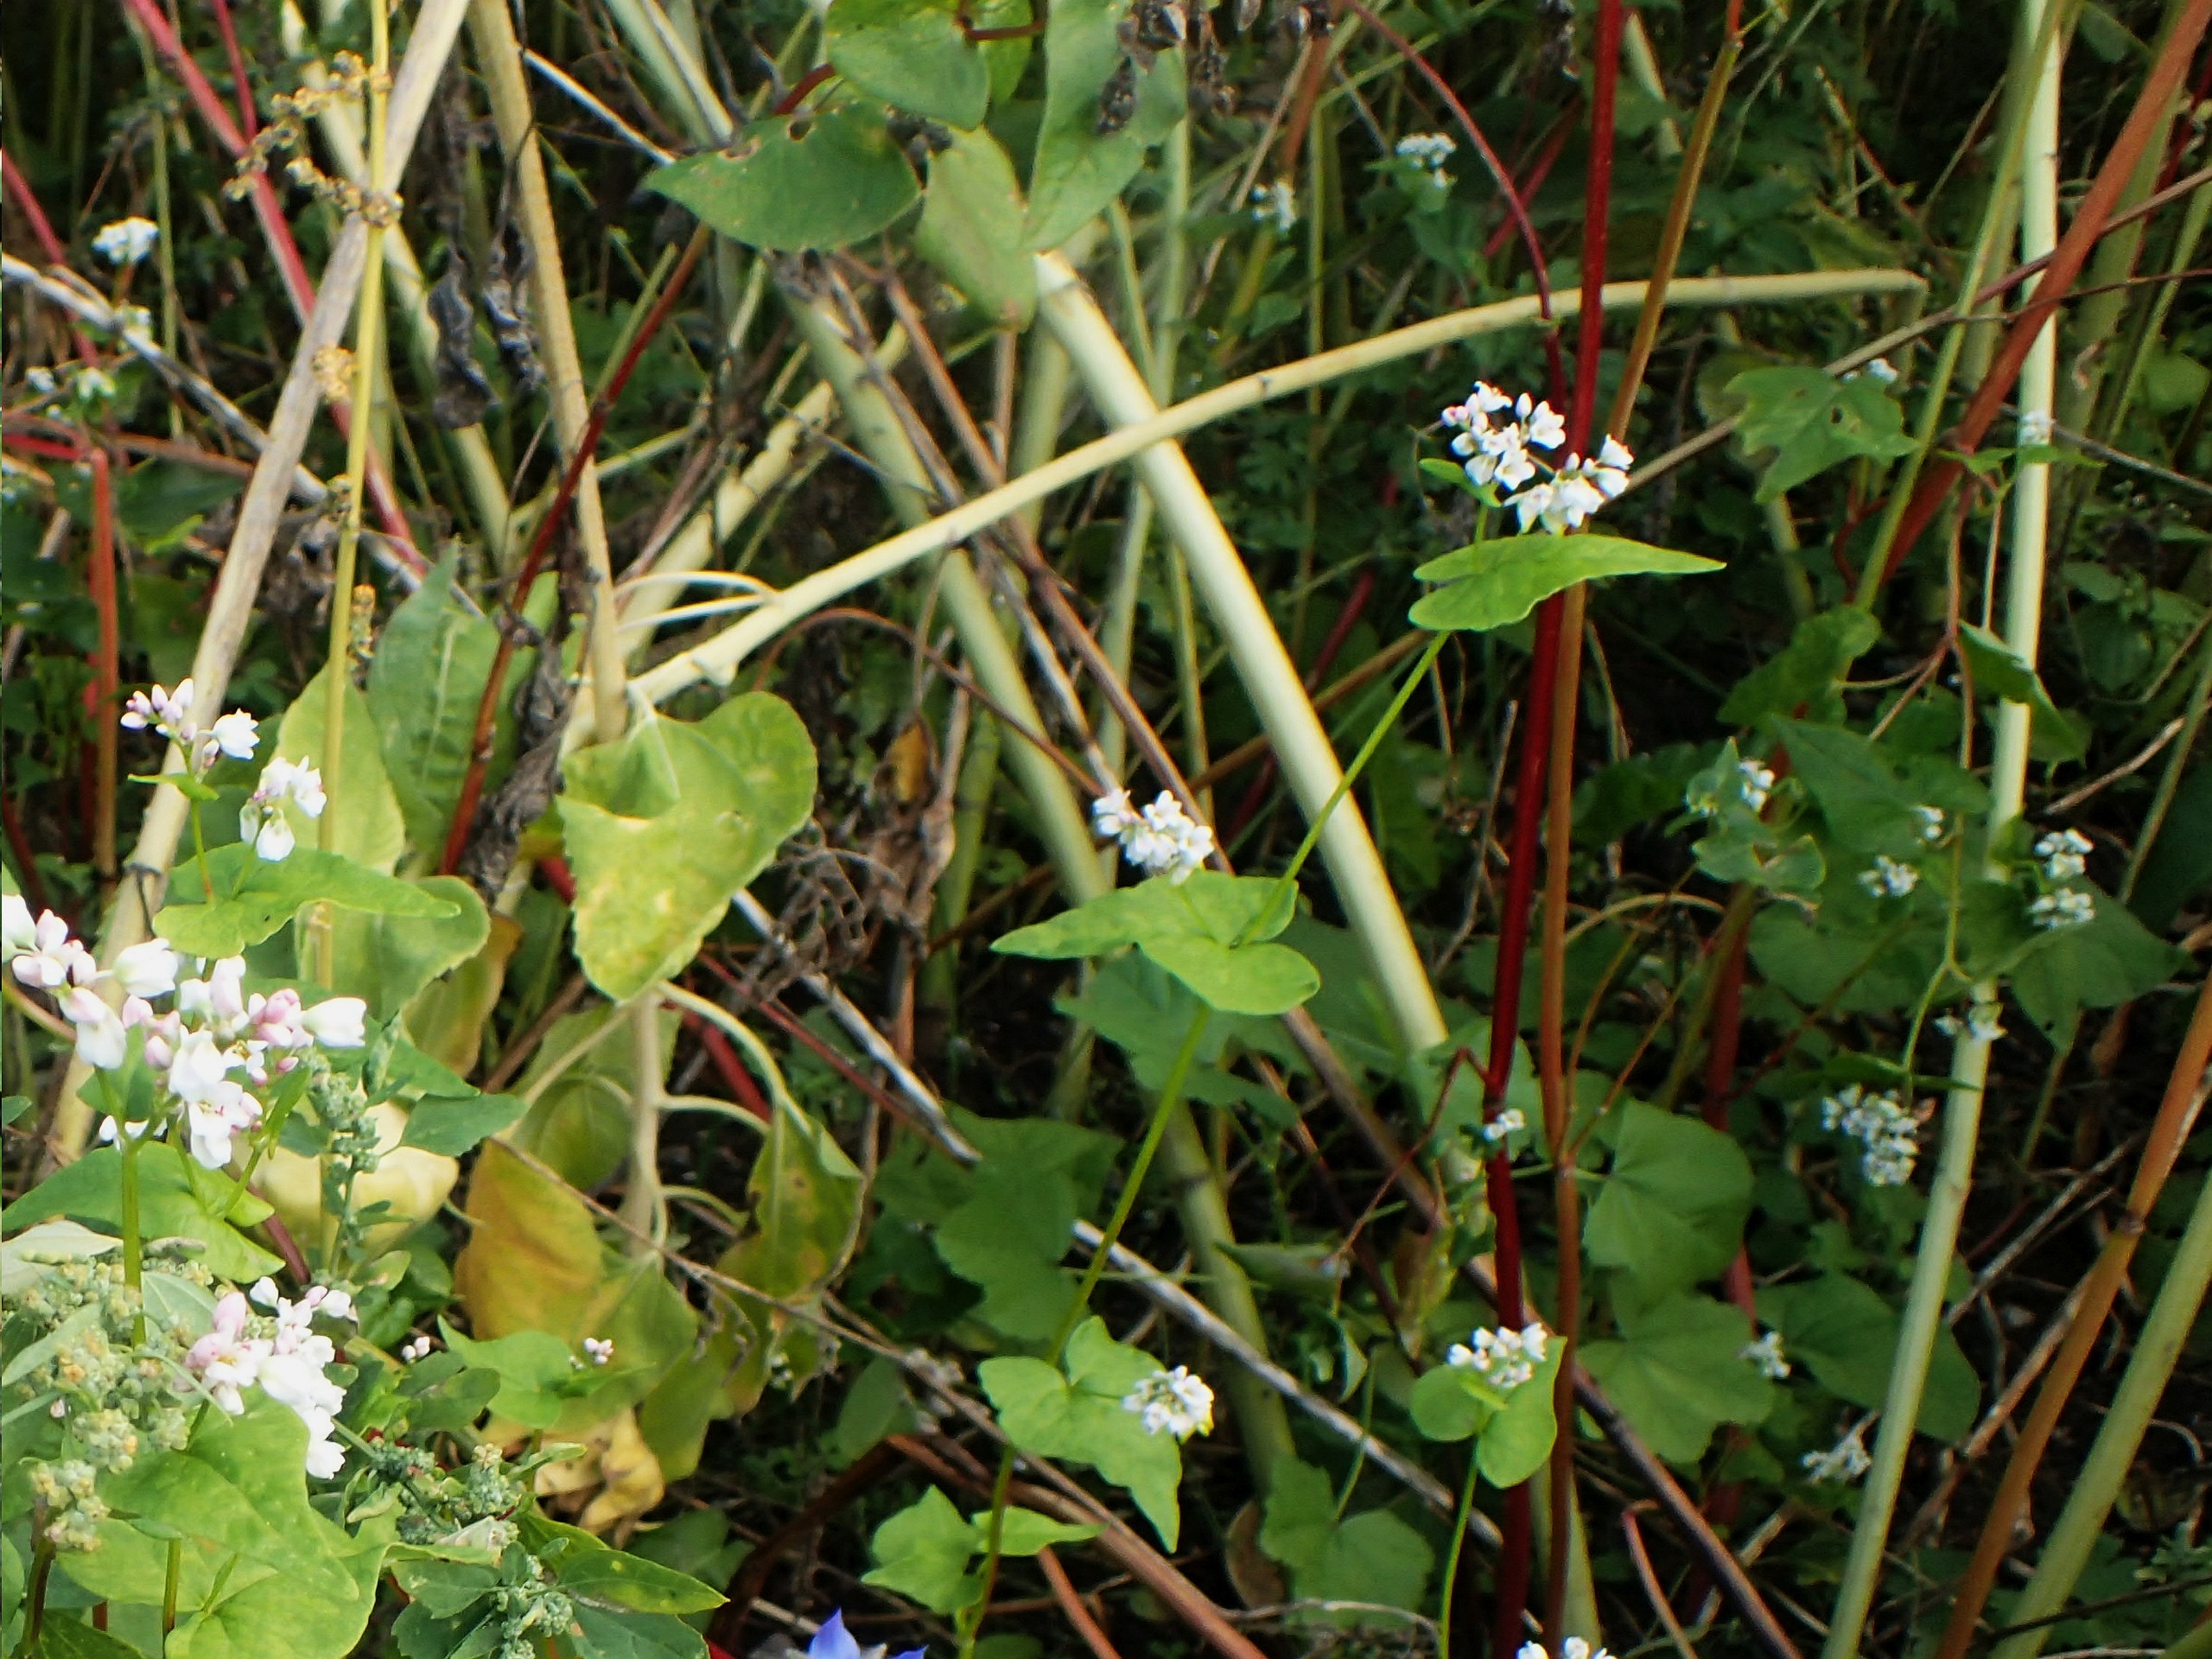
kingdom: Plantae
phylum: Tracheophyta
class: Magnoliopsida
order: Caryophyllales
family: Polygonaceae
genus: Fagopyrum
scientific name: Fagopyrum esculentum
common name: Almindelig boghvede
